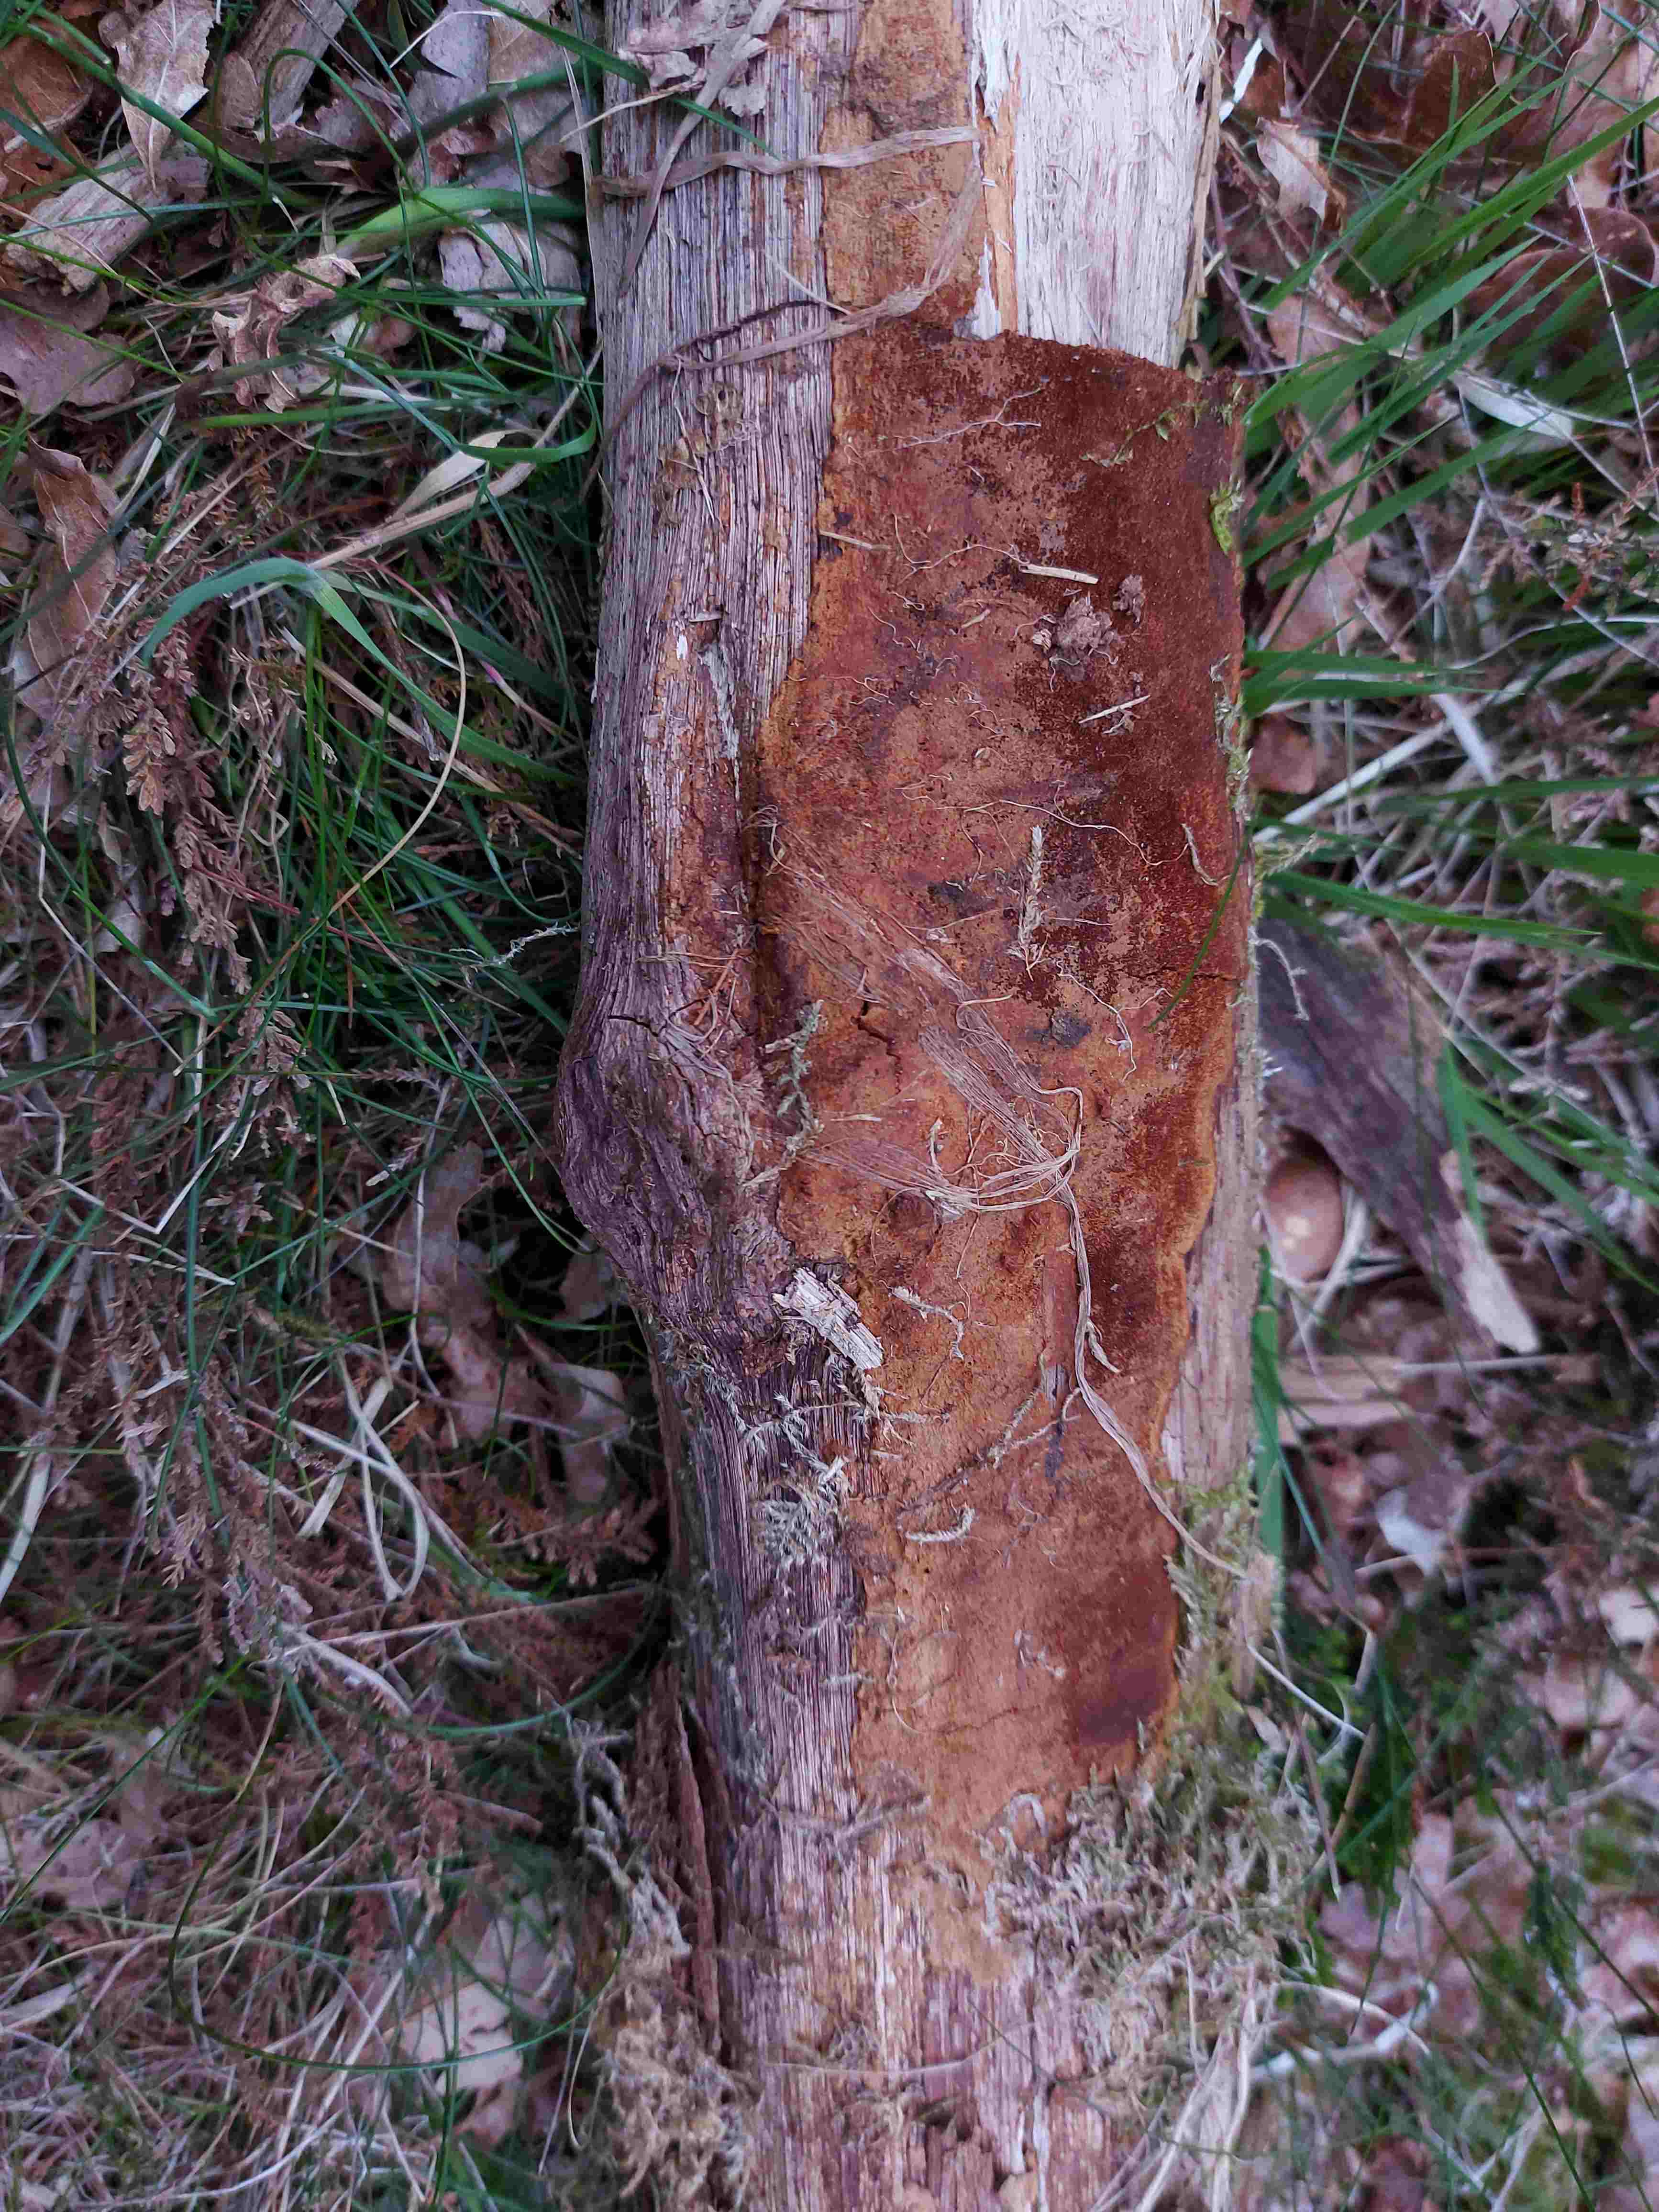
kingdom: Fungi
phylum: Basidiomycota
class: Agaricomycetes
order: Hymenochaetales
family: Hymenochaetaceae
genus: Fuscoporia
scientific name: Fuscoporia
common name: Ildporesvamp
